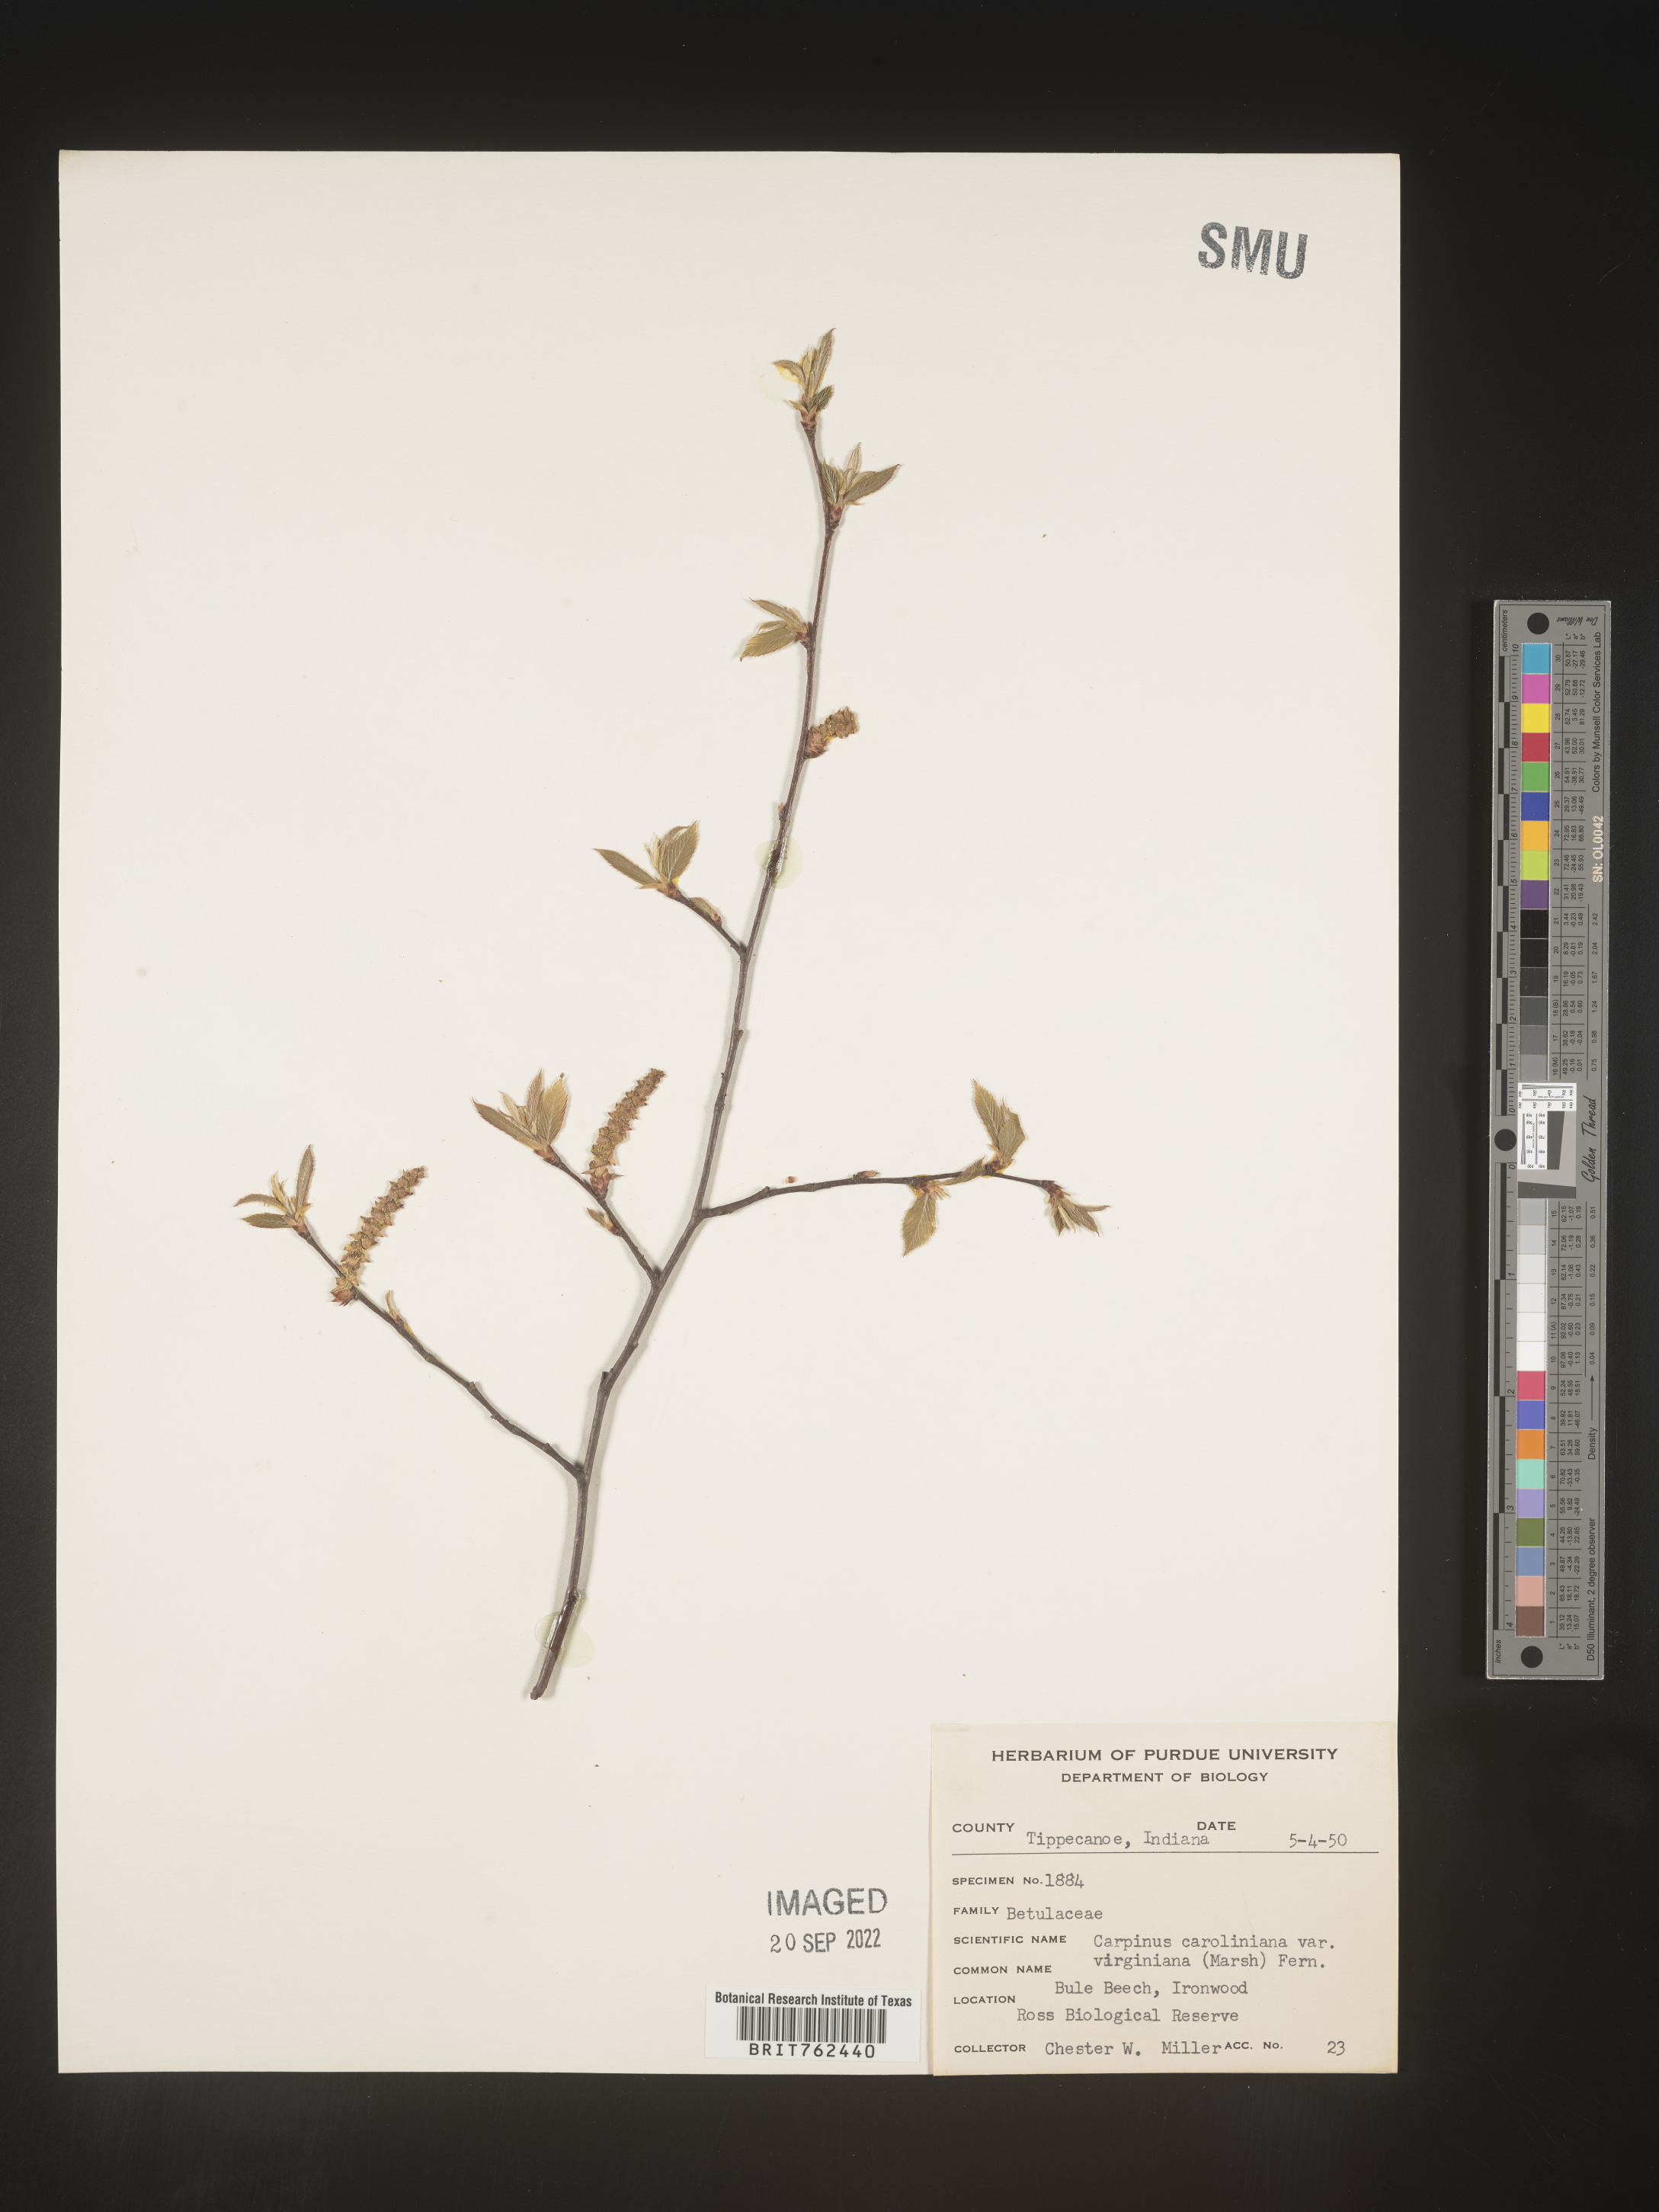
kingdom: Plantae
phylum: Tracheophyta
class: Magnoliopsida
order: Fagales
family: Betulaceae
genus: Carpinus
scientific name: Carpinus caroliniana
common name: American hornbeam
